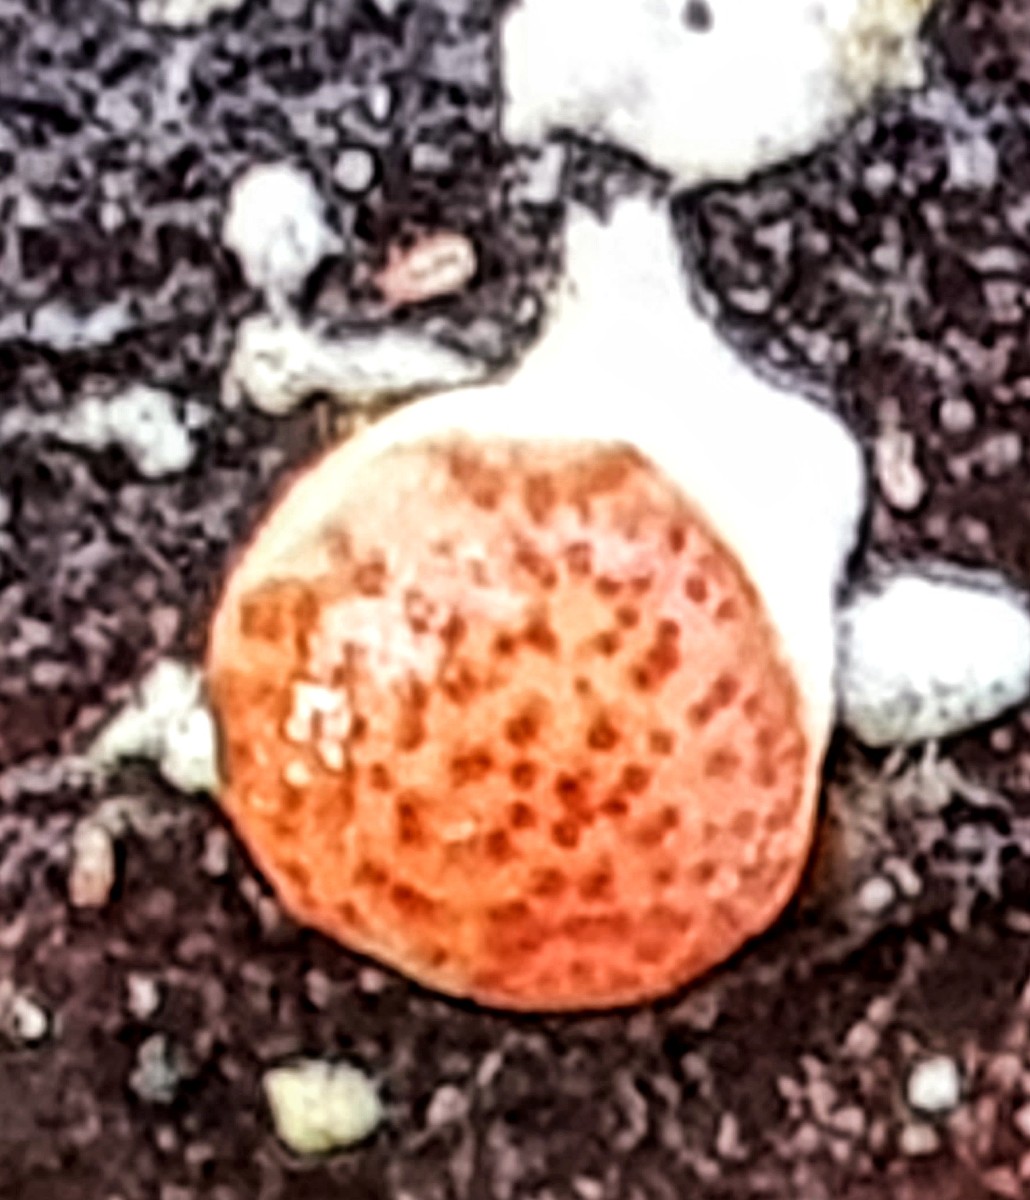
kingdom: Fungi
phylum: Ascomycota
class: Sordariomycetes
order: Hypocreales
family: Hypocreaceae
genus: Trichoderma
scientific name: Trichoderma europaeum
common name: rosabrun kødkerne
